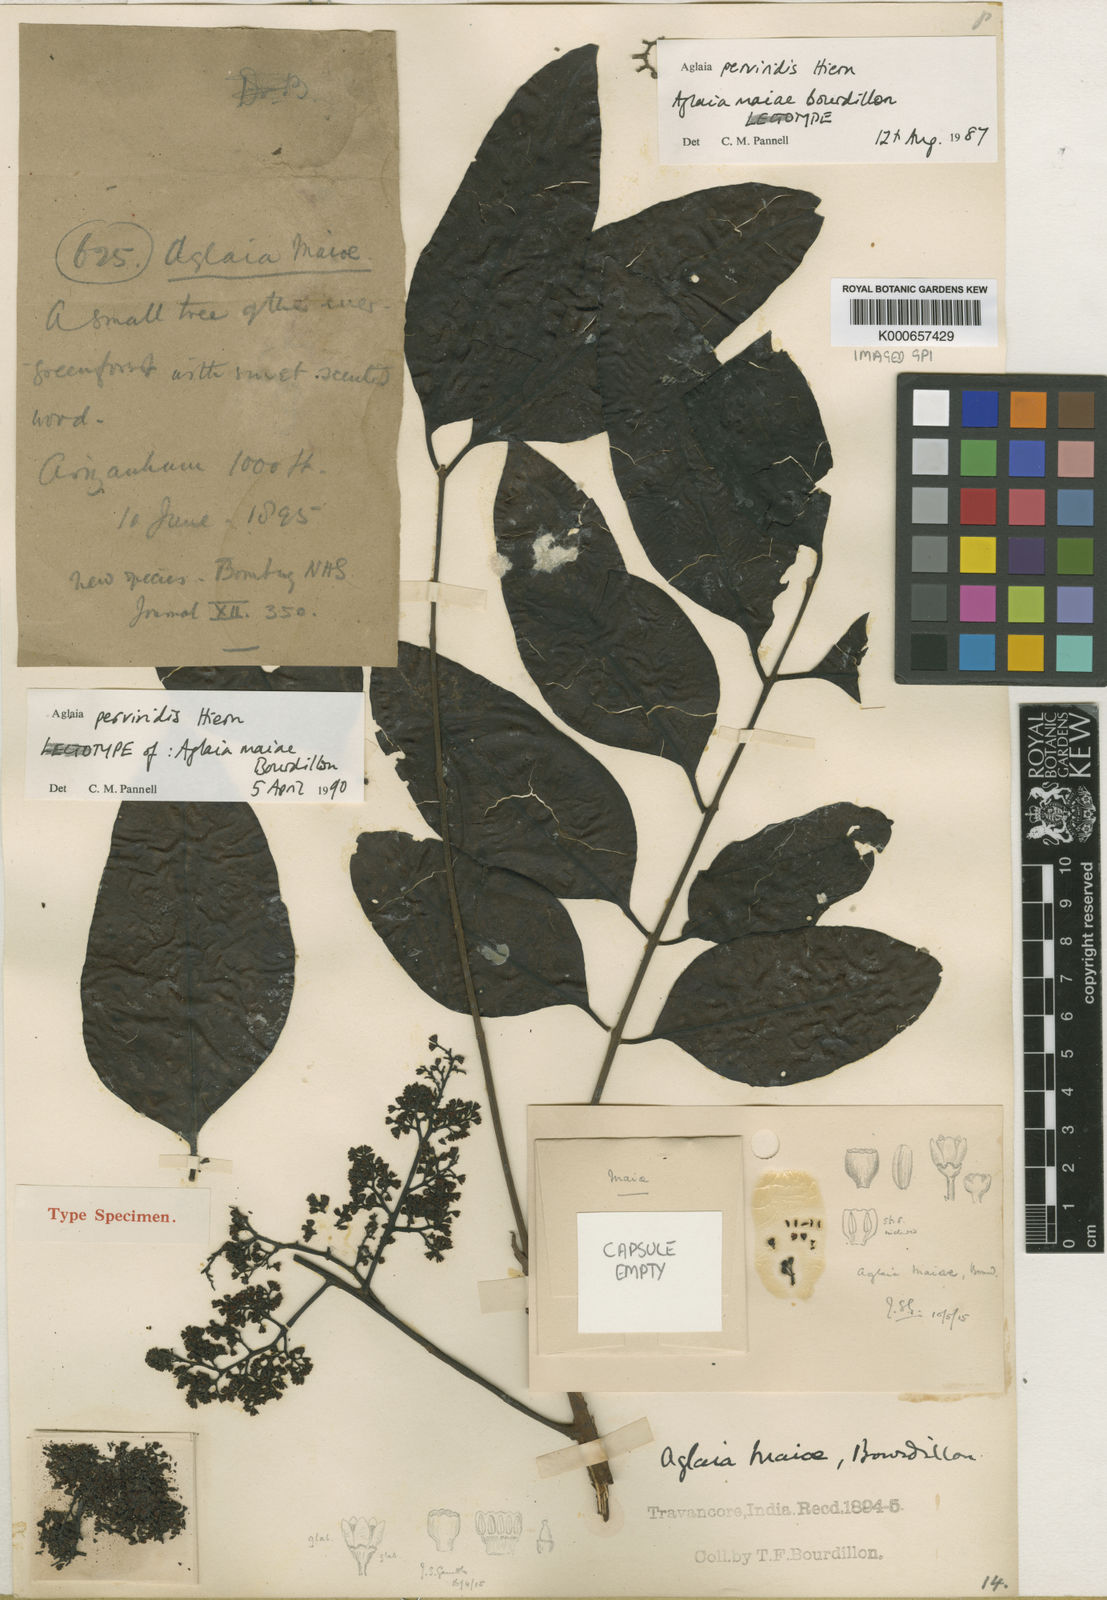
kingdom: Plantae
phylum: Tracheophyta
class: Magnoliopsida
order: Sapindales
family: Meliaceae
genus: Aglaia
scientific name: Aglaia perviridis
